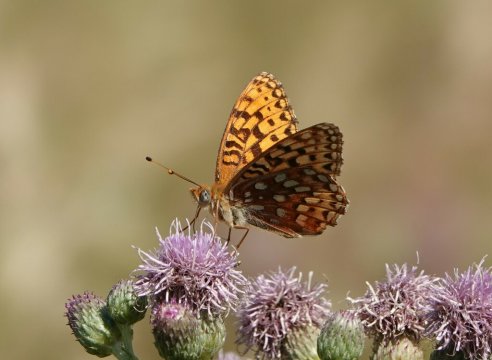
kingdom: Animalia
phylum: Arthropoda
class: Insecta
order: Lepidoptera
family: Nymphalidae
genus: Speyeria
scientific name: Speyeria
